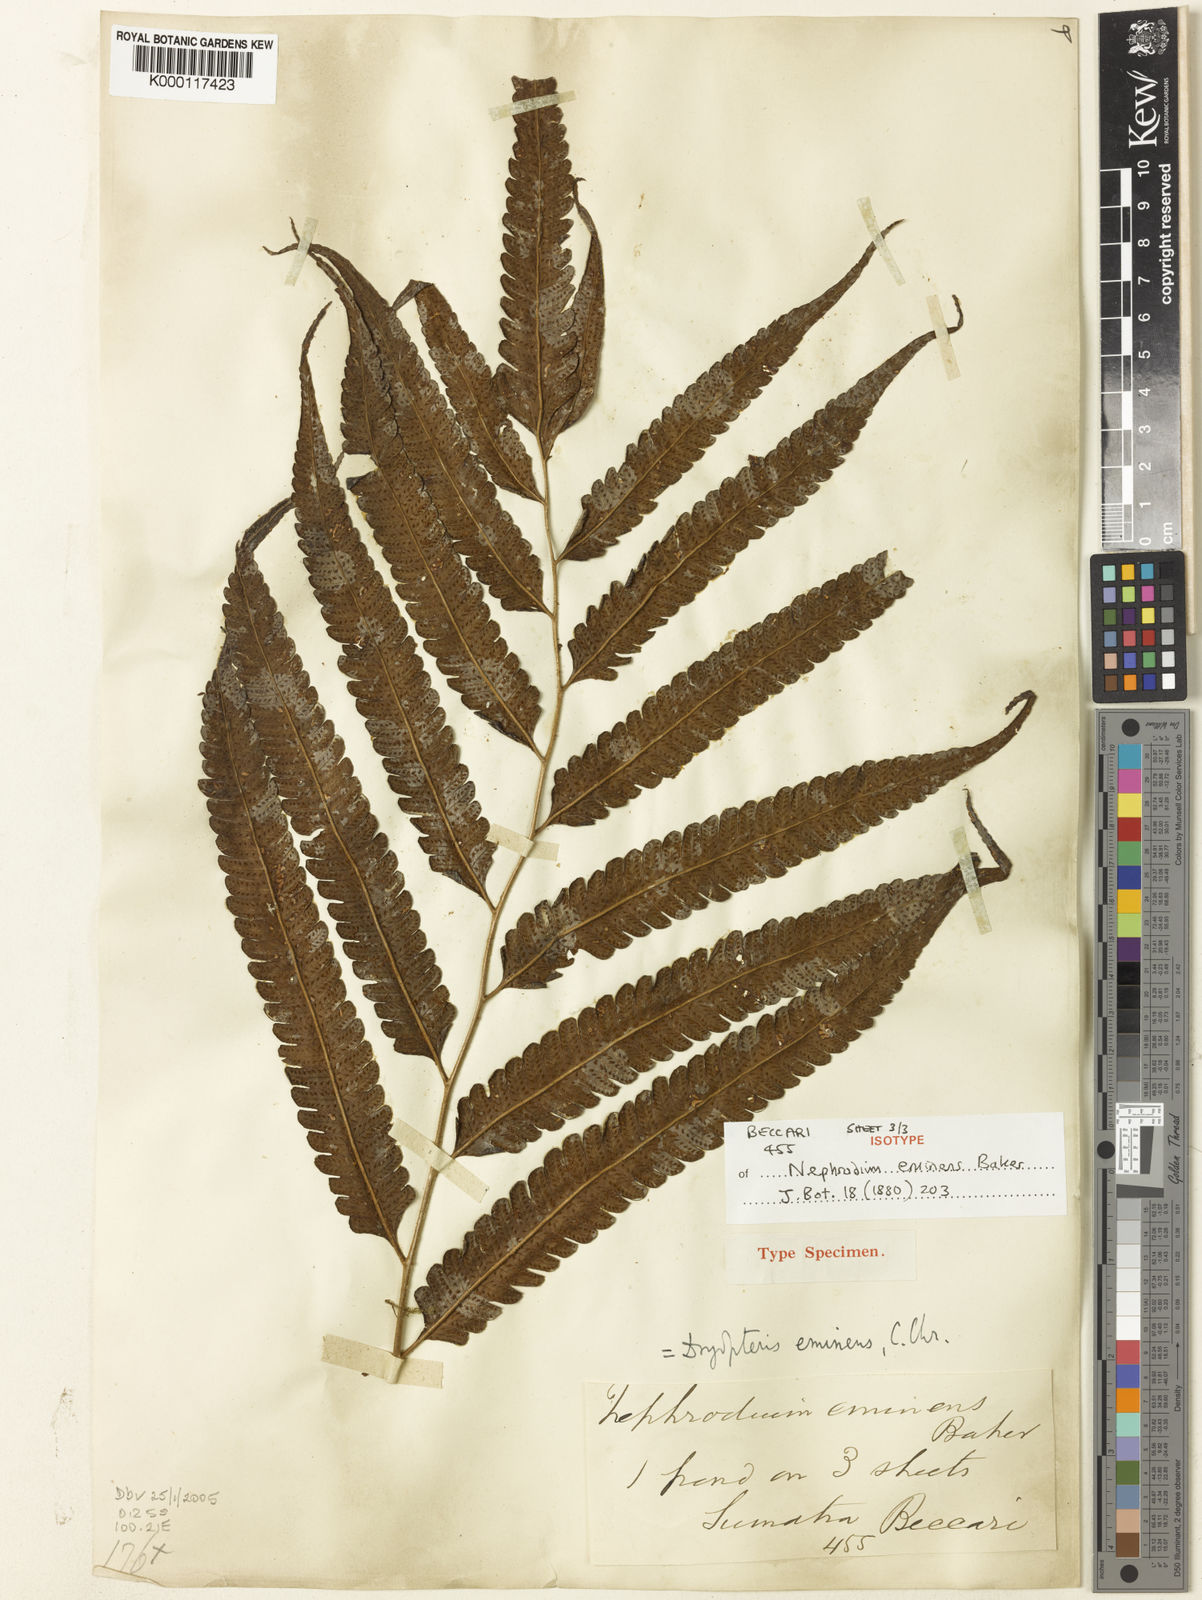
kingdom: Plantae
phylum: Tracheophyta
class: Polypodiopsida
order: Polypodiales
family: Thelypteridaceae
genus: Sphaerostephanos
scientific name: Sphaerostephanos eminens
